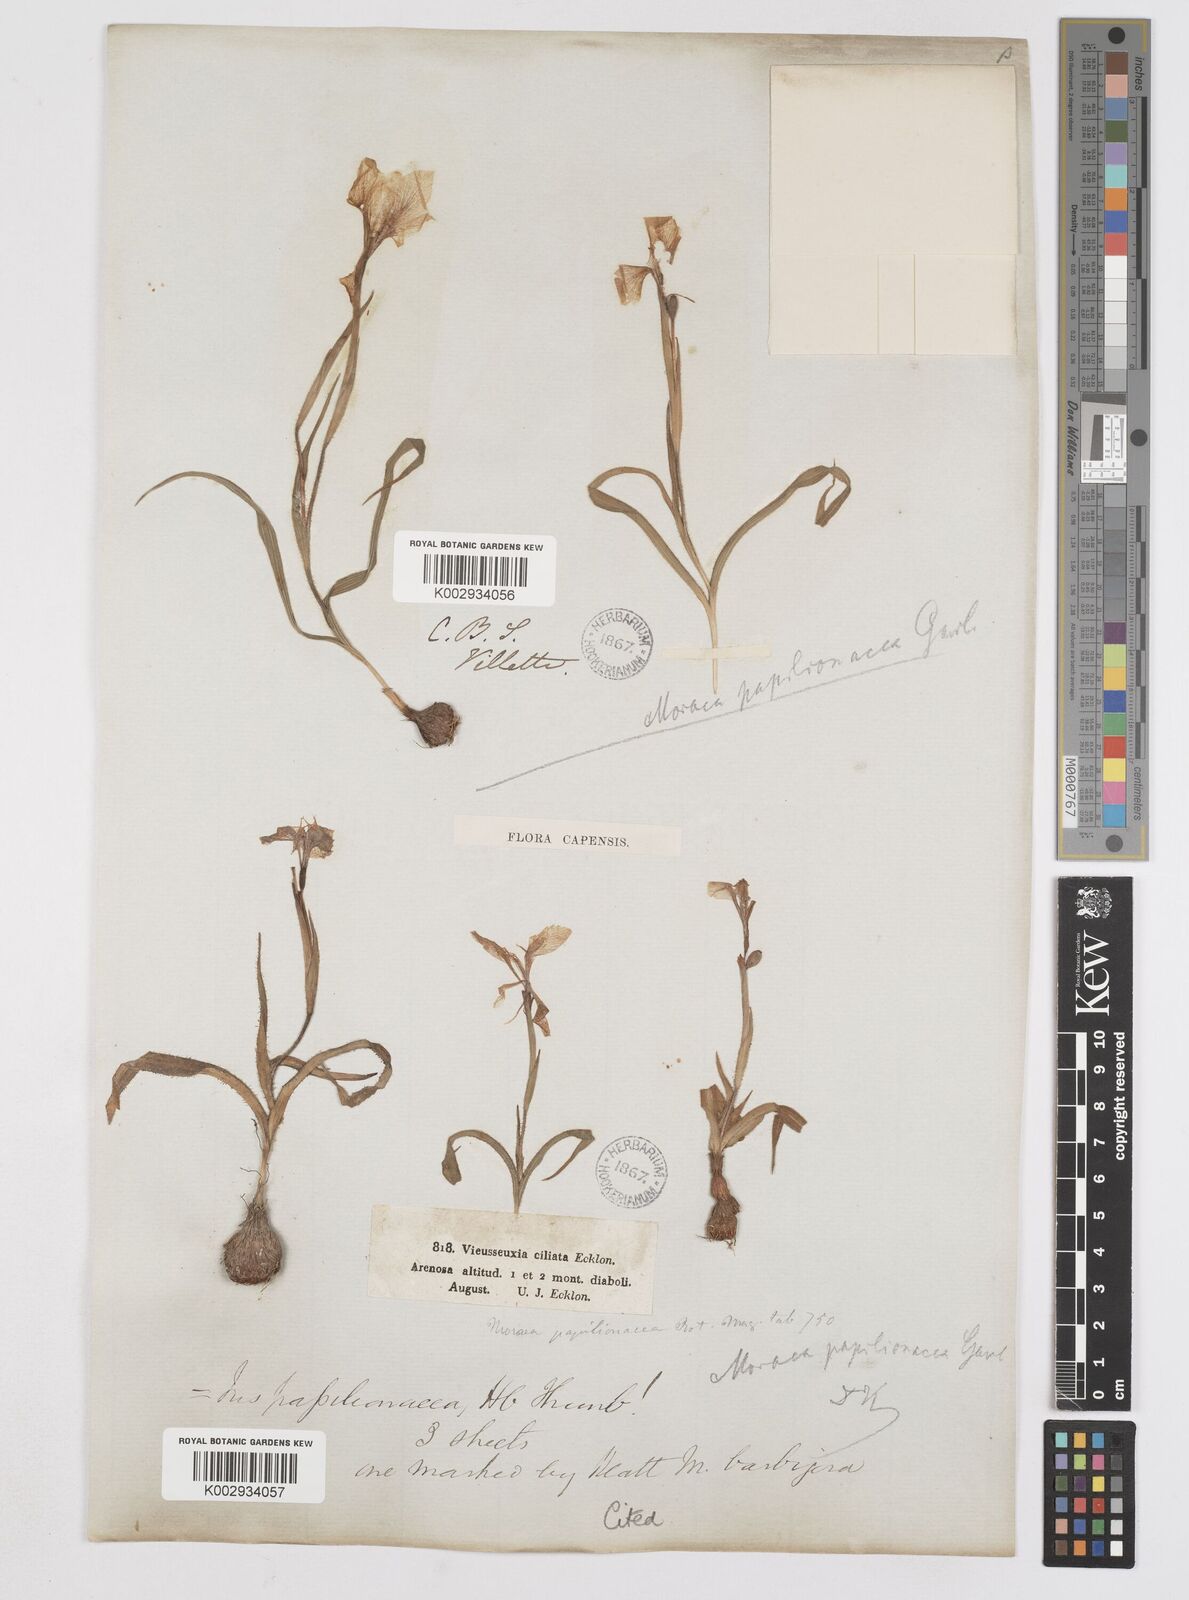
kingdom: Plantae
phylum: Tracheophyta
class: Liliopsida
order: Asparagales
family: Iridaceae
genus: Moraea
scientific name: Moraea papilionacea
